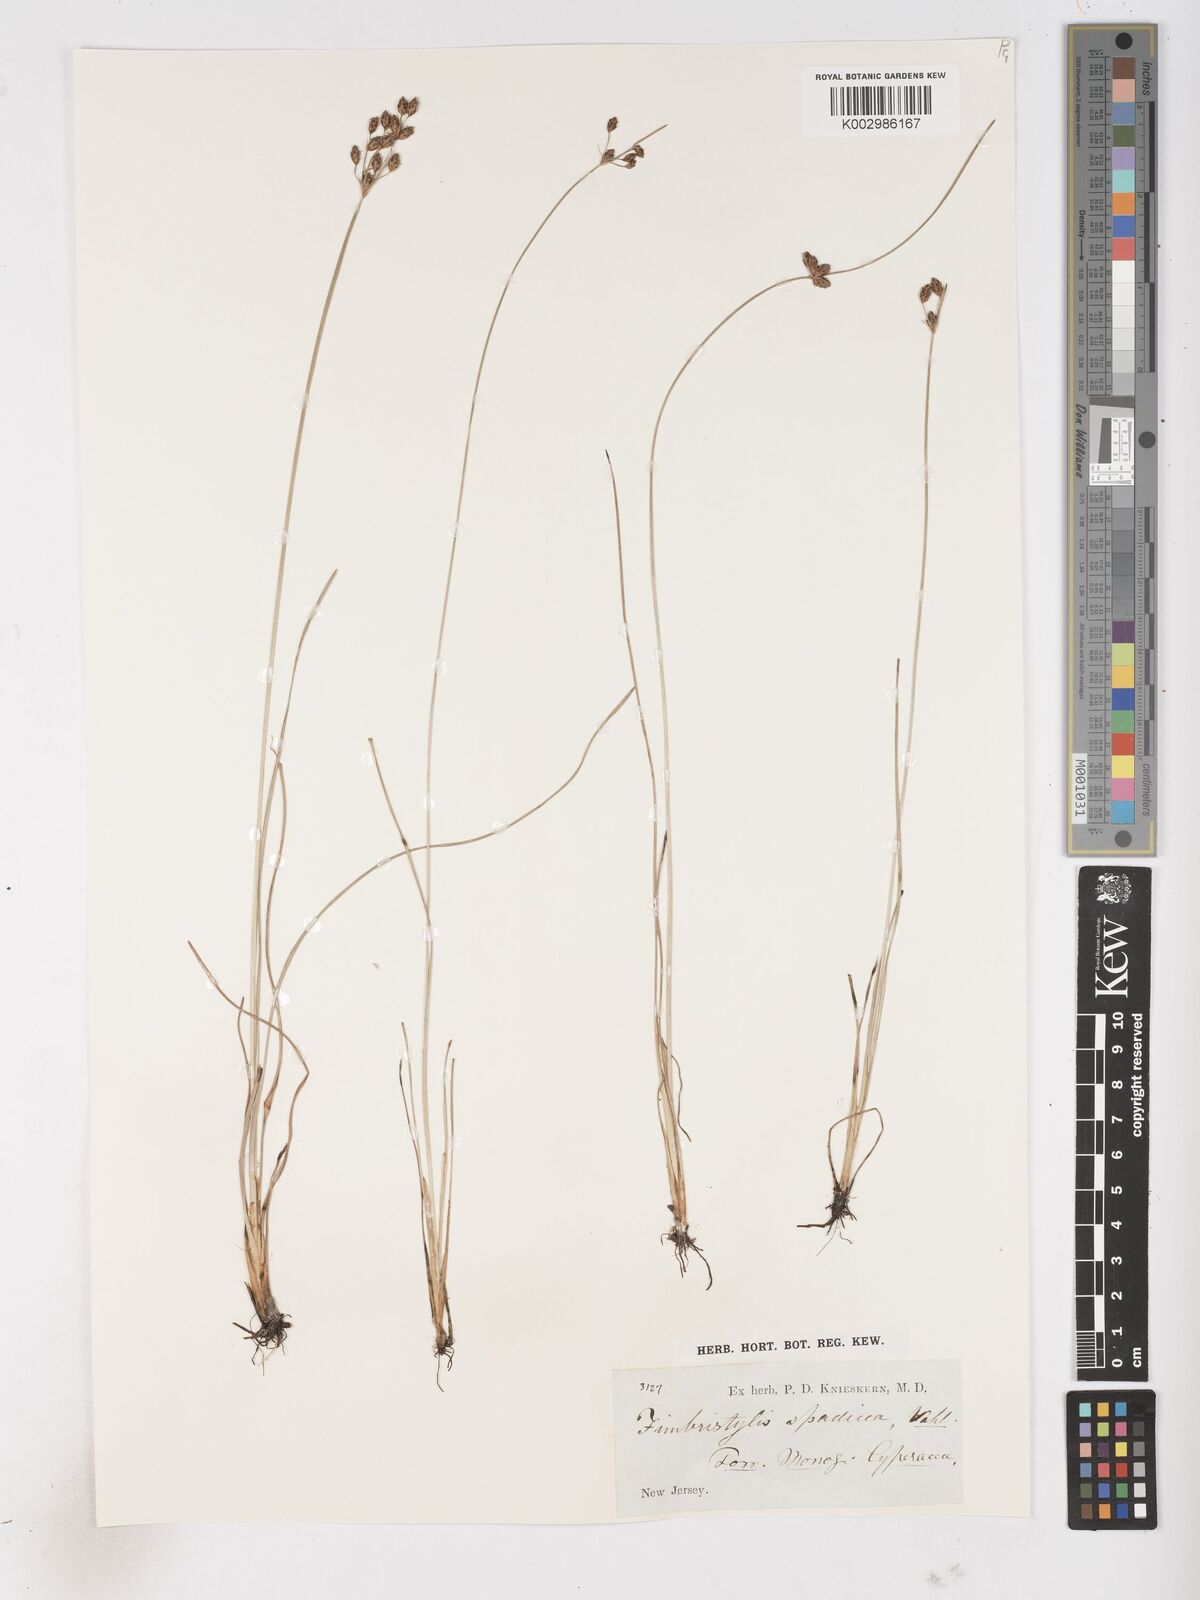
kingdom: Plantae
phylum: Tracheophyta
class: Liliopsida
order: Poales
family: Cyperaceae
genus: Fimbristylis
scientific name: Fimbristylis spadicea
